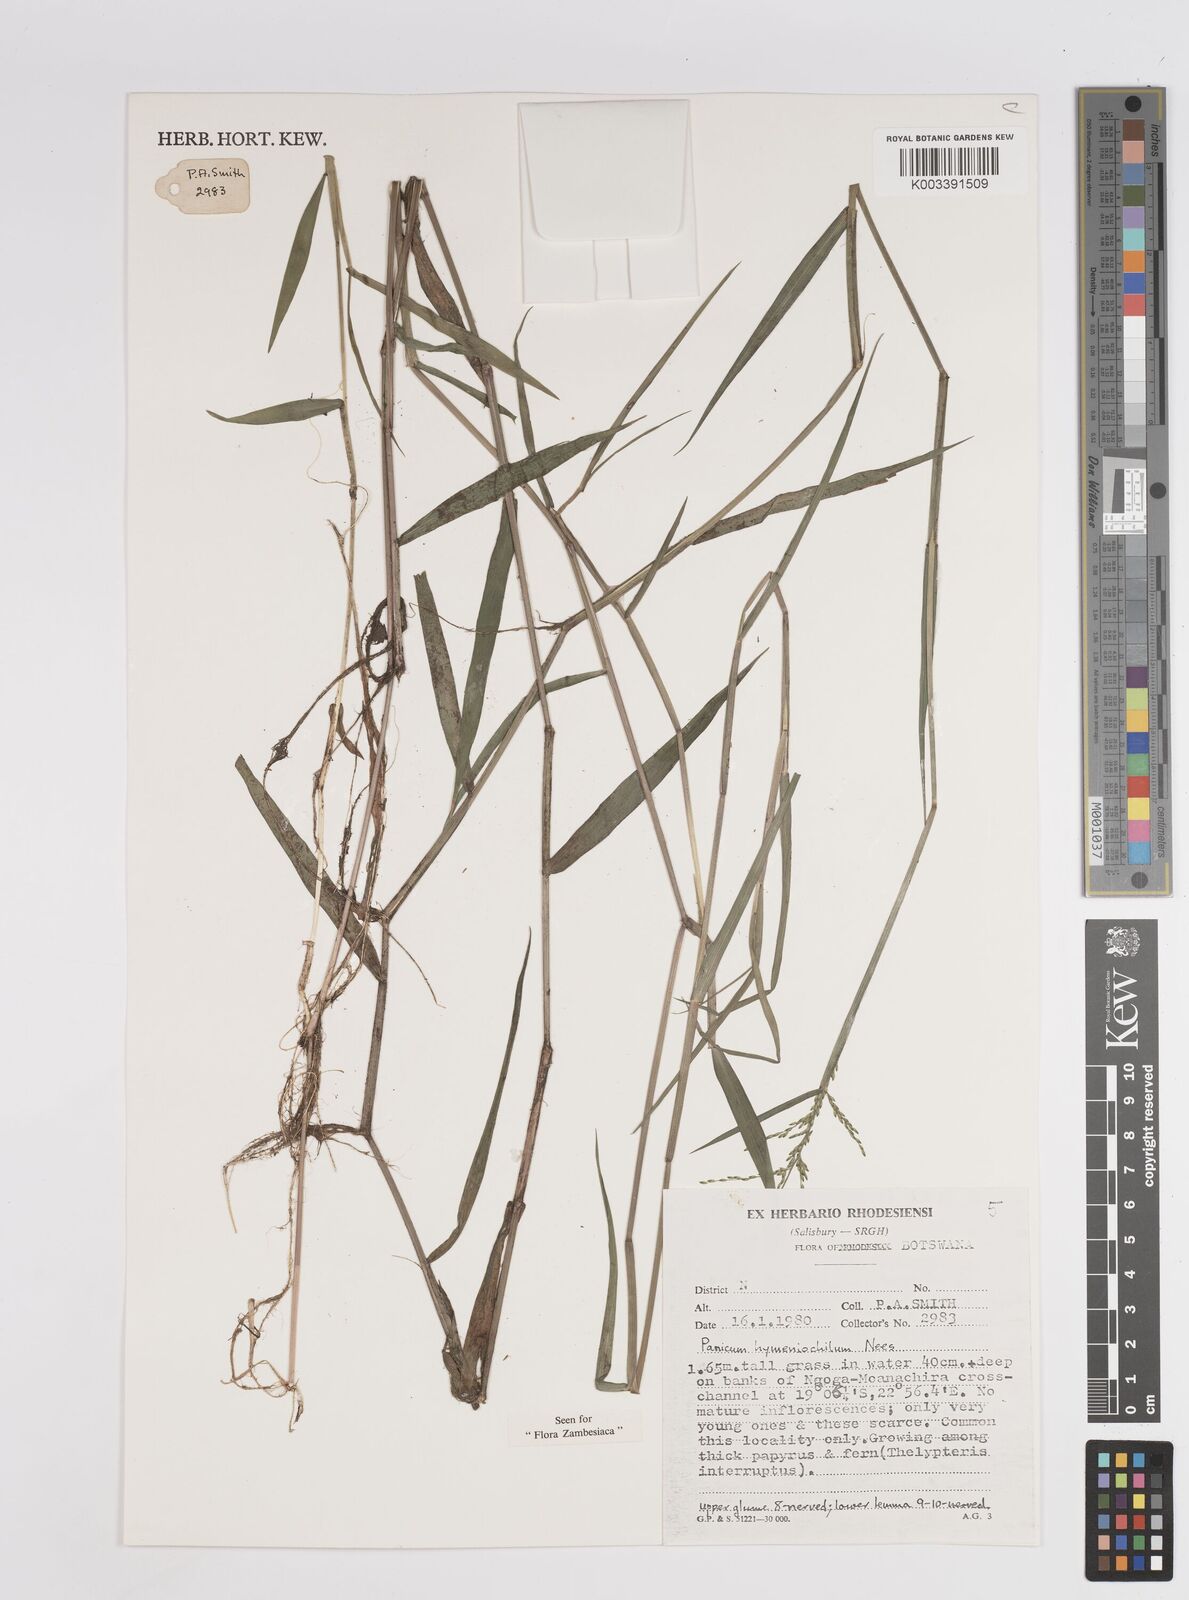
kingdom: Plantae
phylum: Tracheophyta
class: Liliopsida
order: Poales
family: Poaceae
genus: Adenochloa
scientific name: Adenochloa hymeniochila
